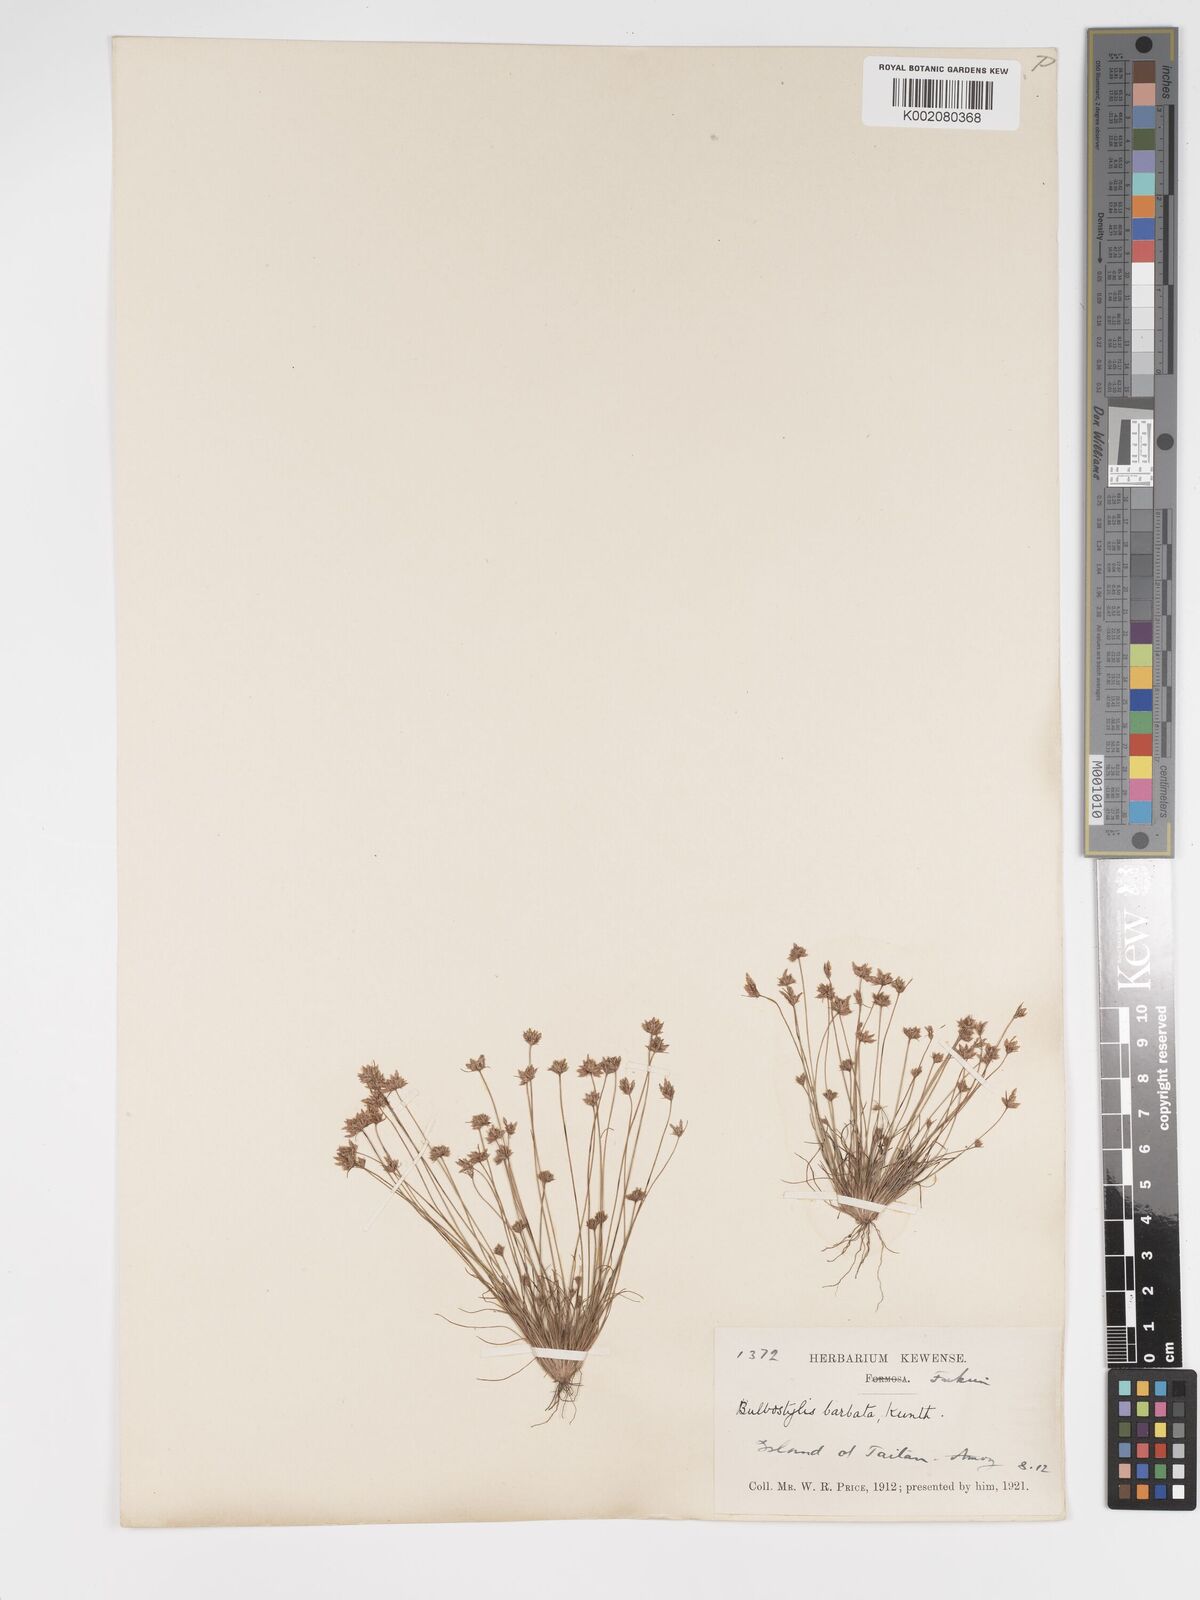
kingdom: Plantae
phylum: Tracheophyta
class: Liliopsida
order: Poales
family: Cyperaceae
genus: Bulbostylis
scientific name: Bulbostylis barbata
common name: Watergrass
